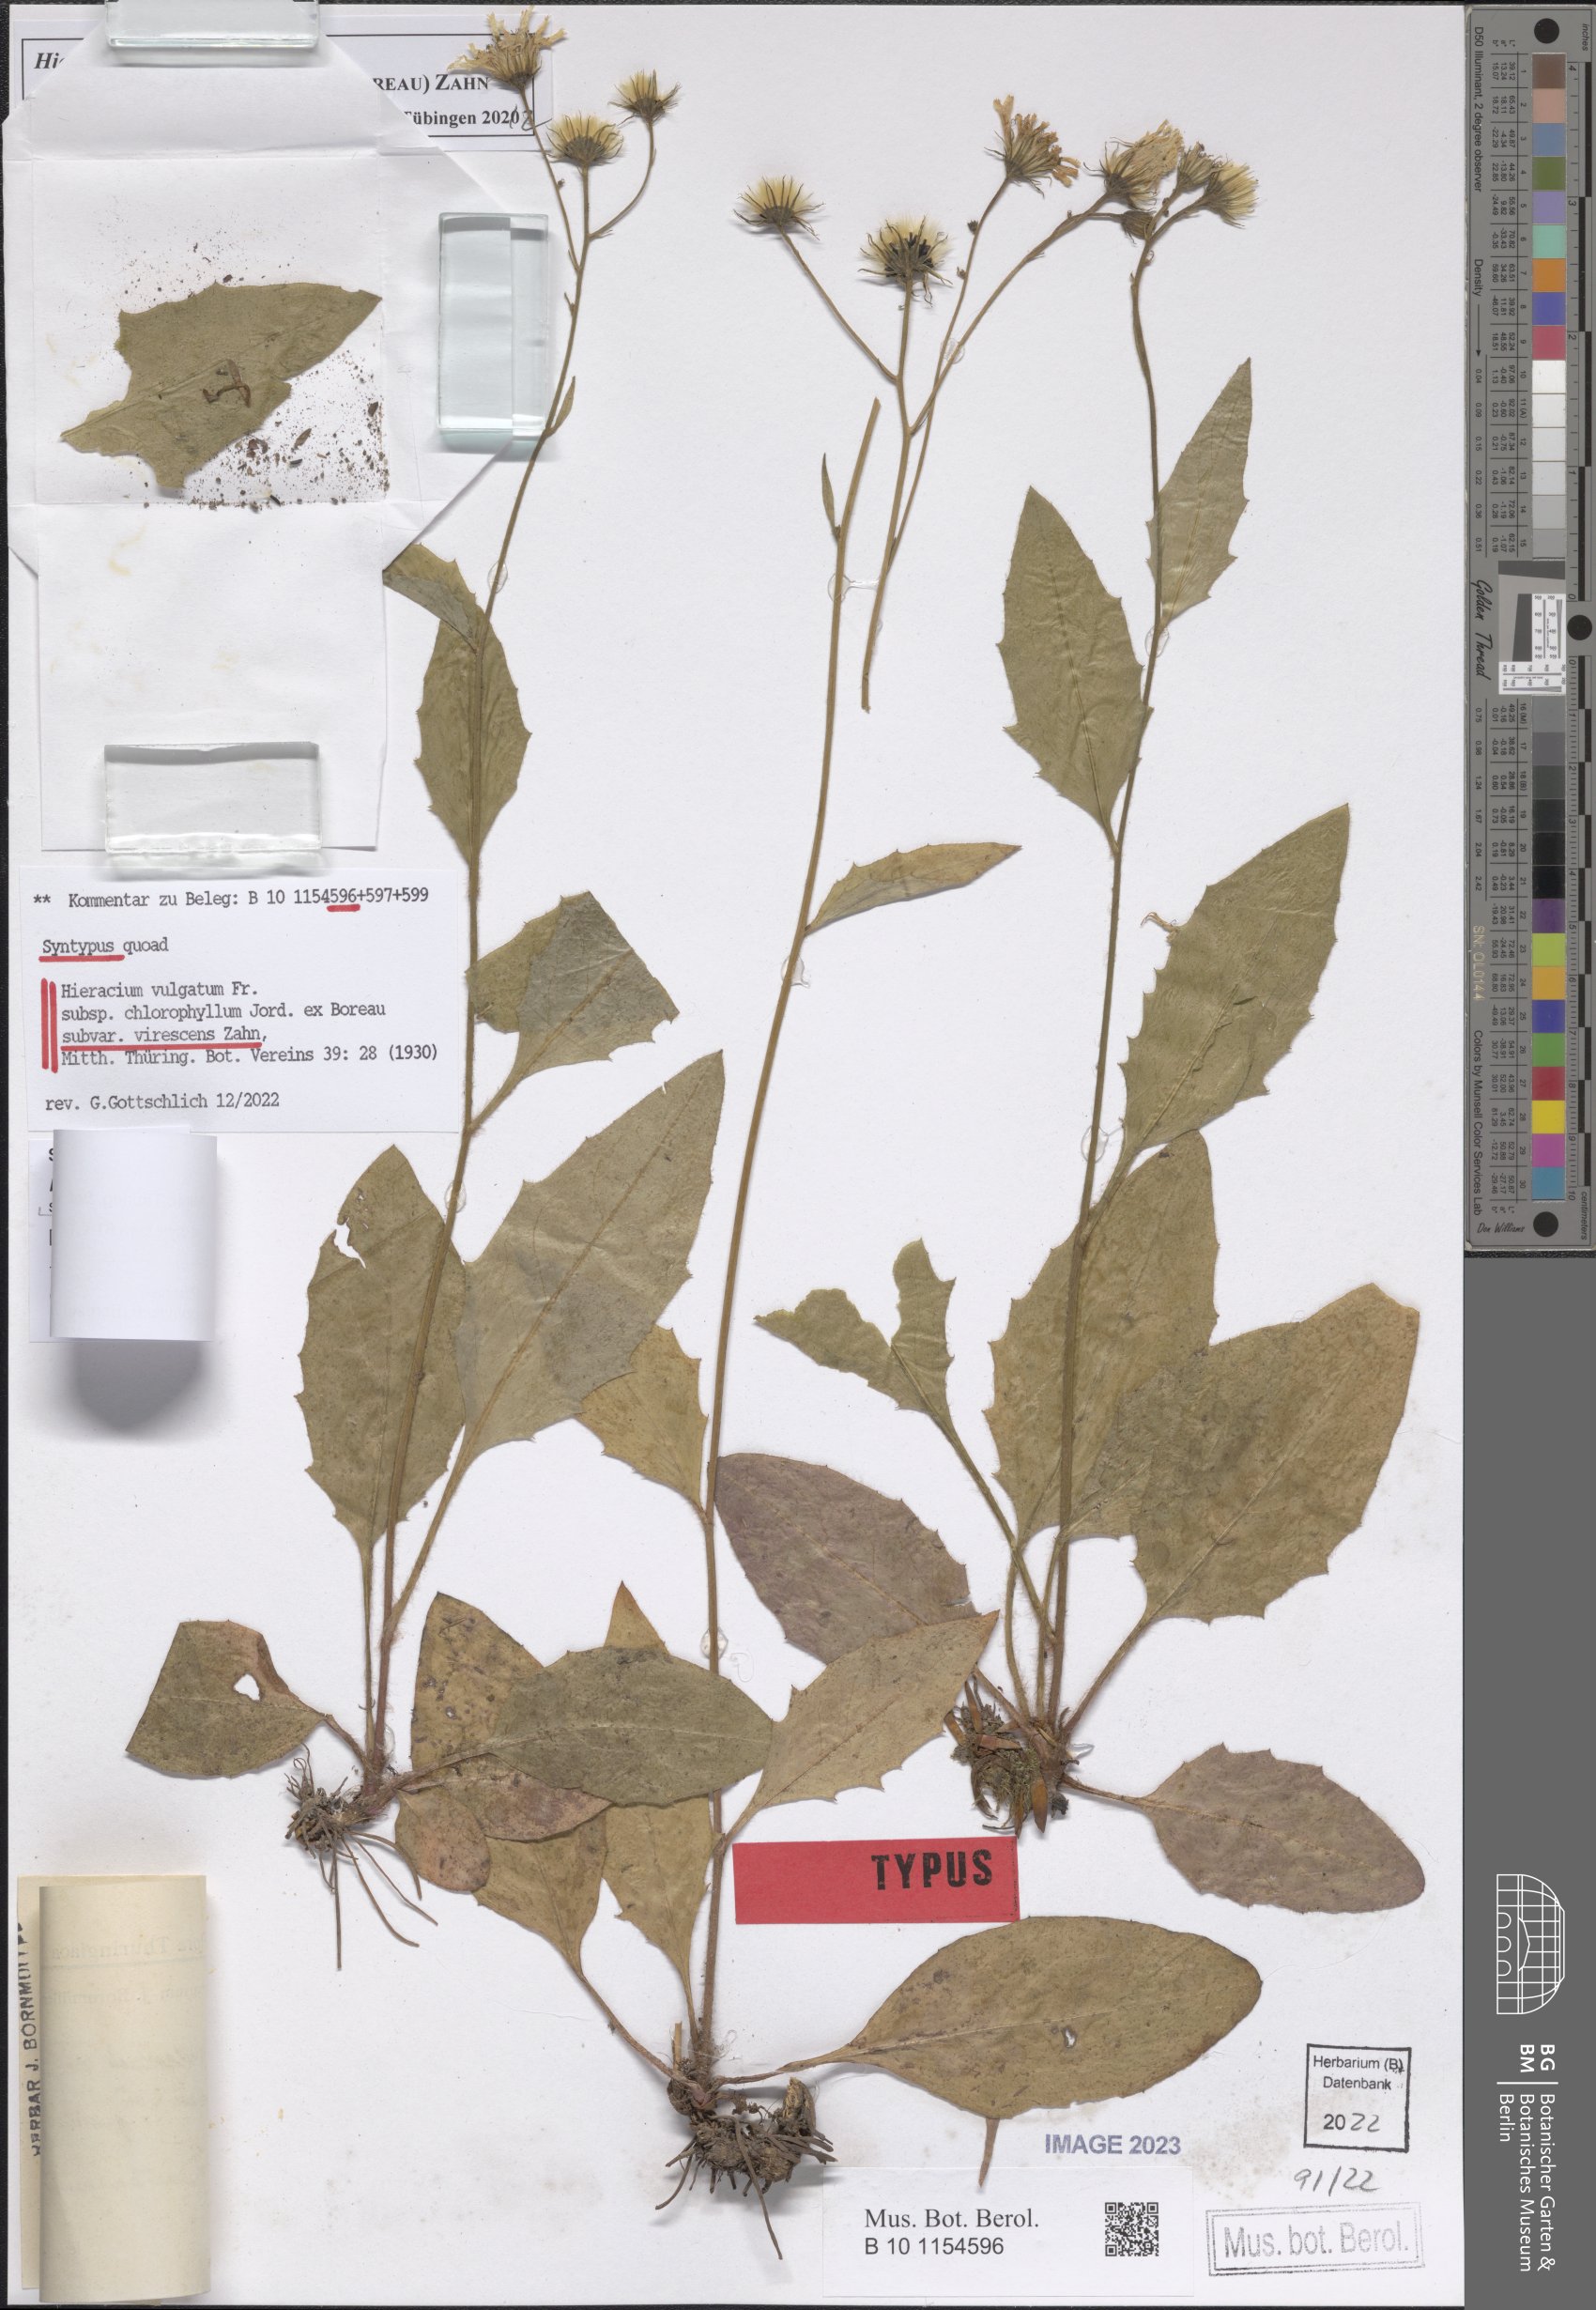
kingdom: Plantae
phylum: Tracheophyta
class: Magnoliopsida
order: Asterales
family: Asteraceae
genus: Hieracium
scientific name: Hieracium vulgatum
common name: Common hawkweed
